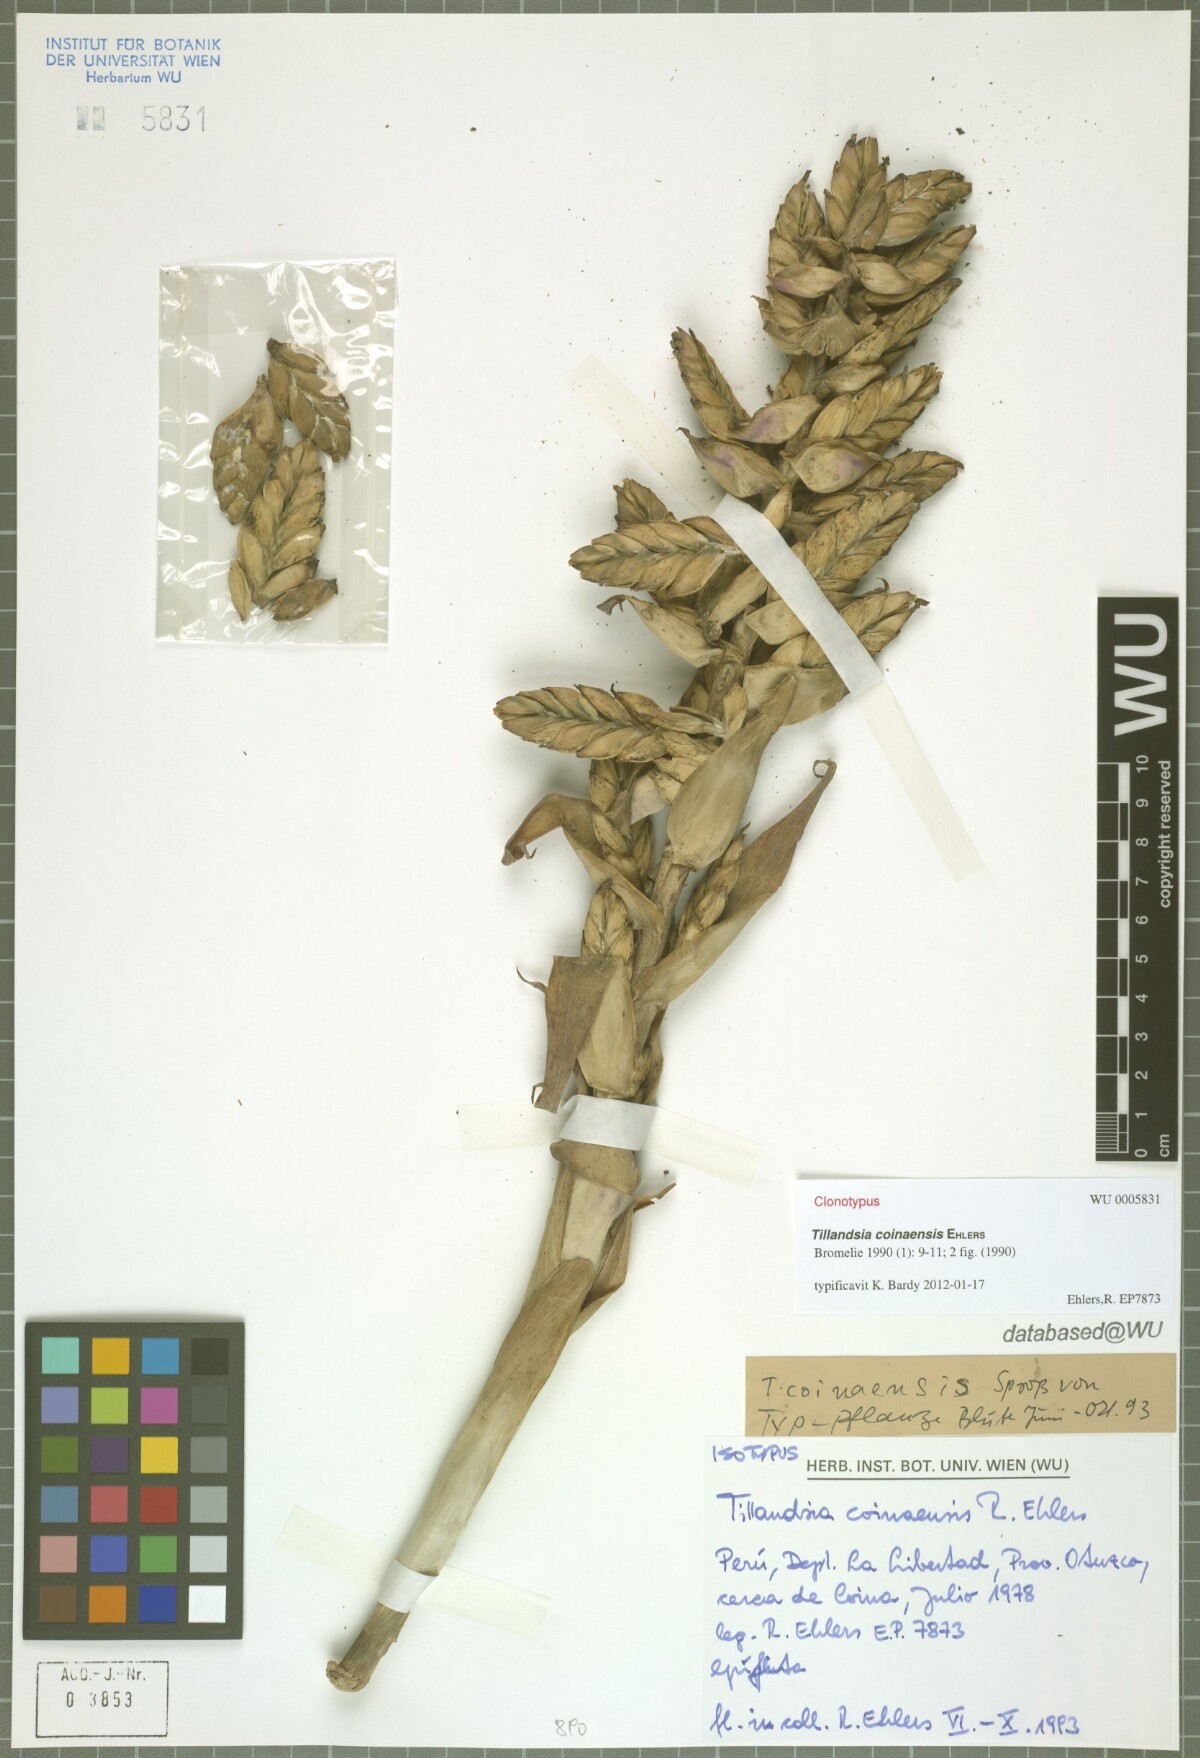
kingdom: Plantae
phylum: Tracheophyta
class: Liliopsida
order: Poales
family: Bromeliaceae
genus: Tillandsia
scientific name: Tillandsia coinaensis
